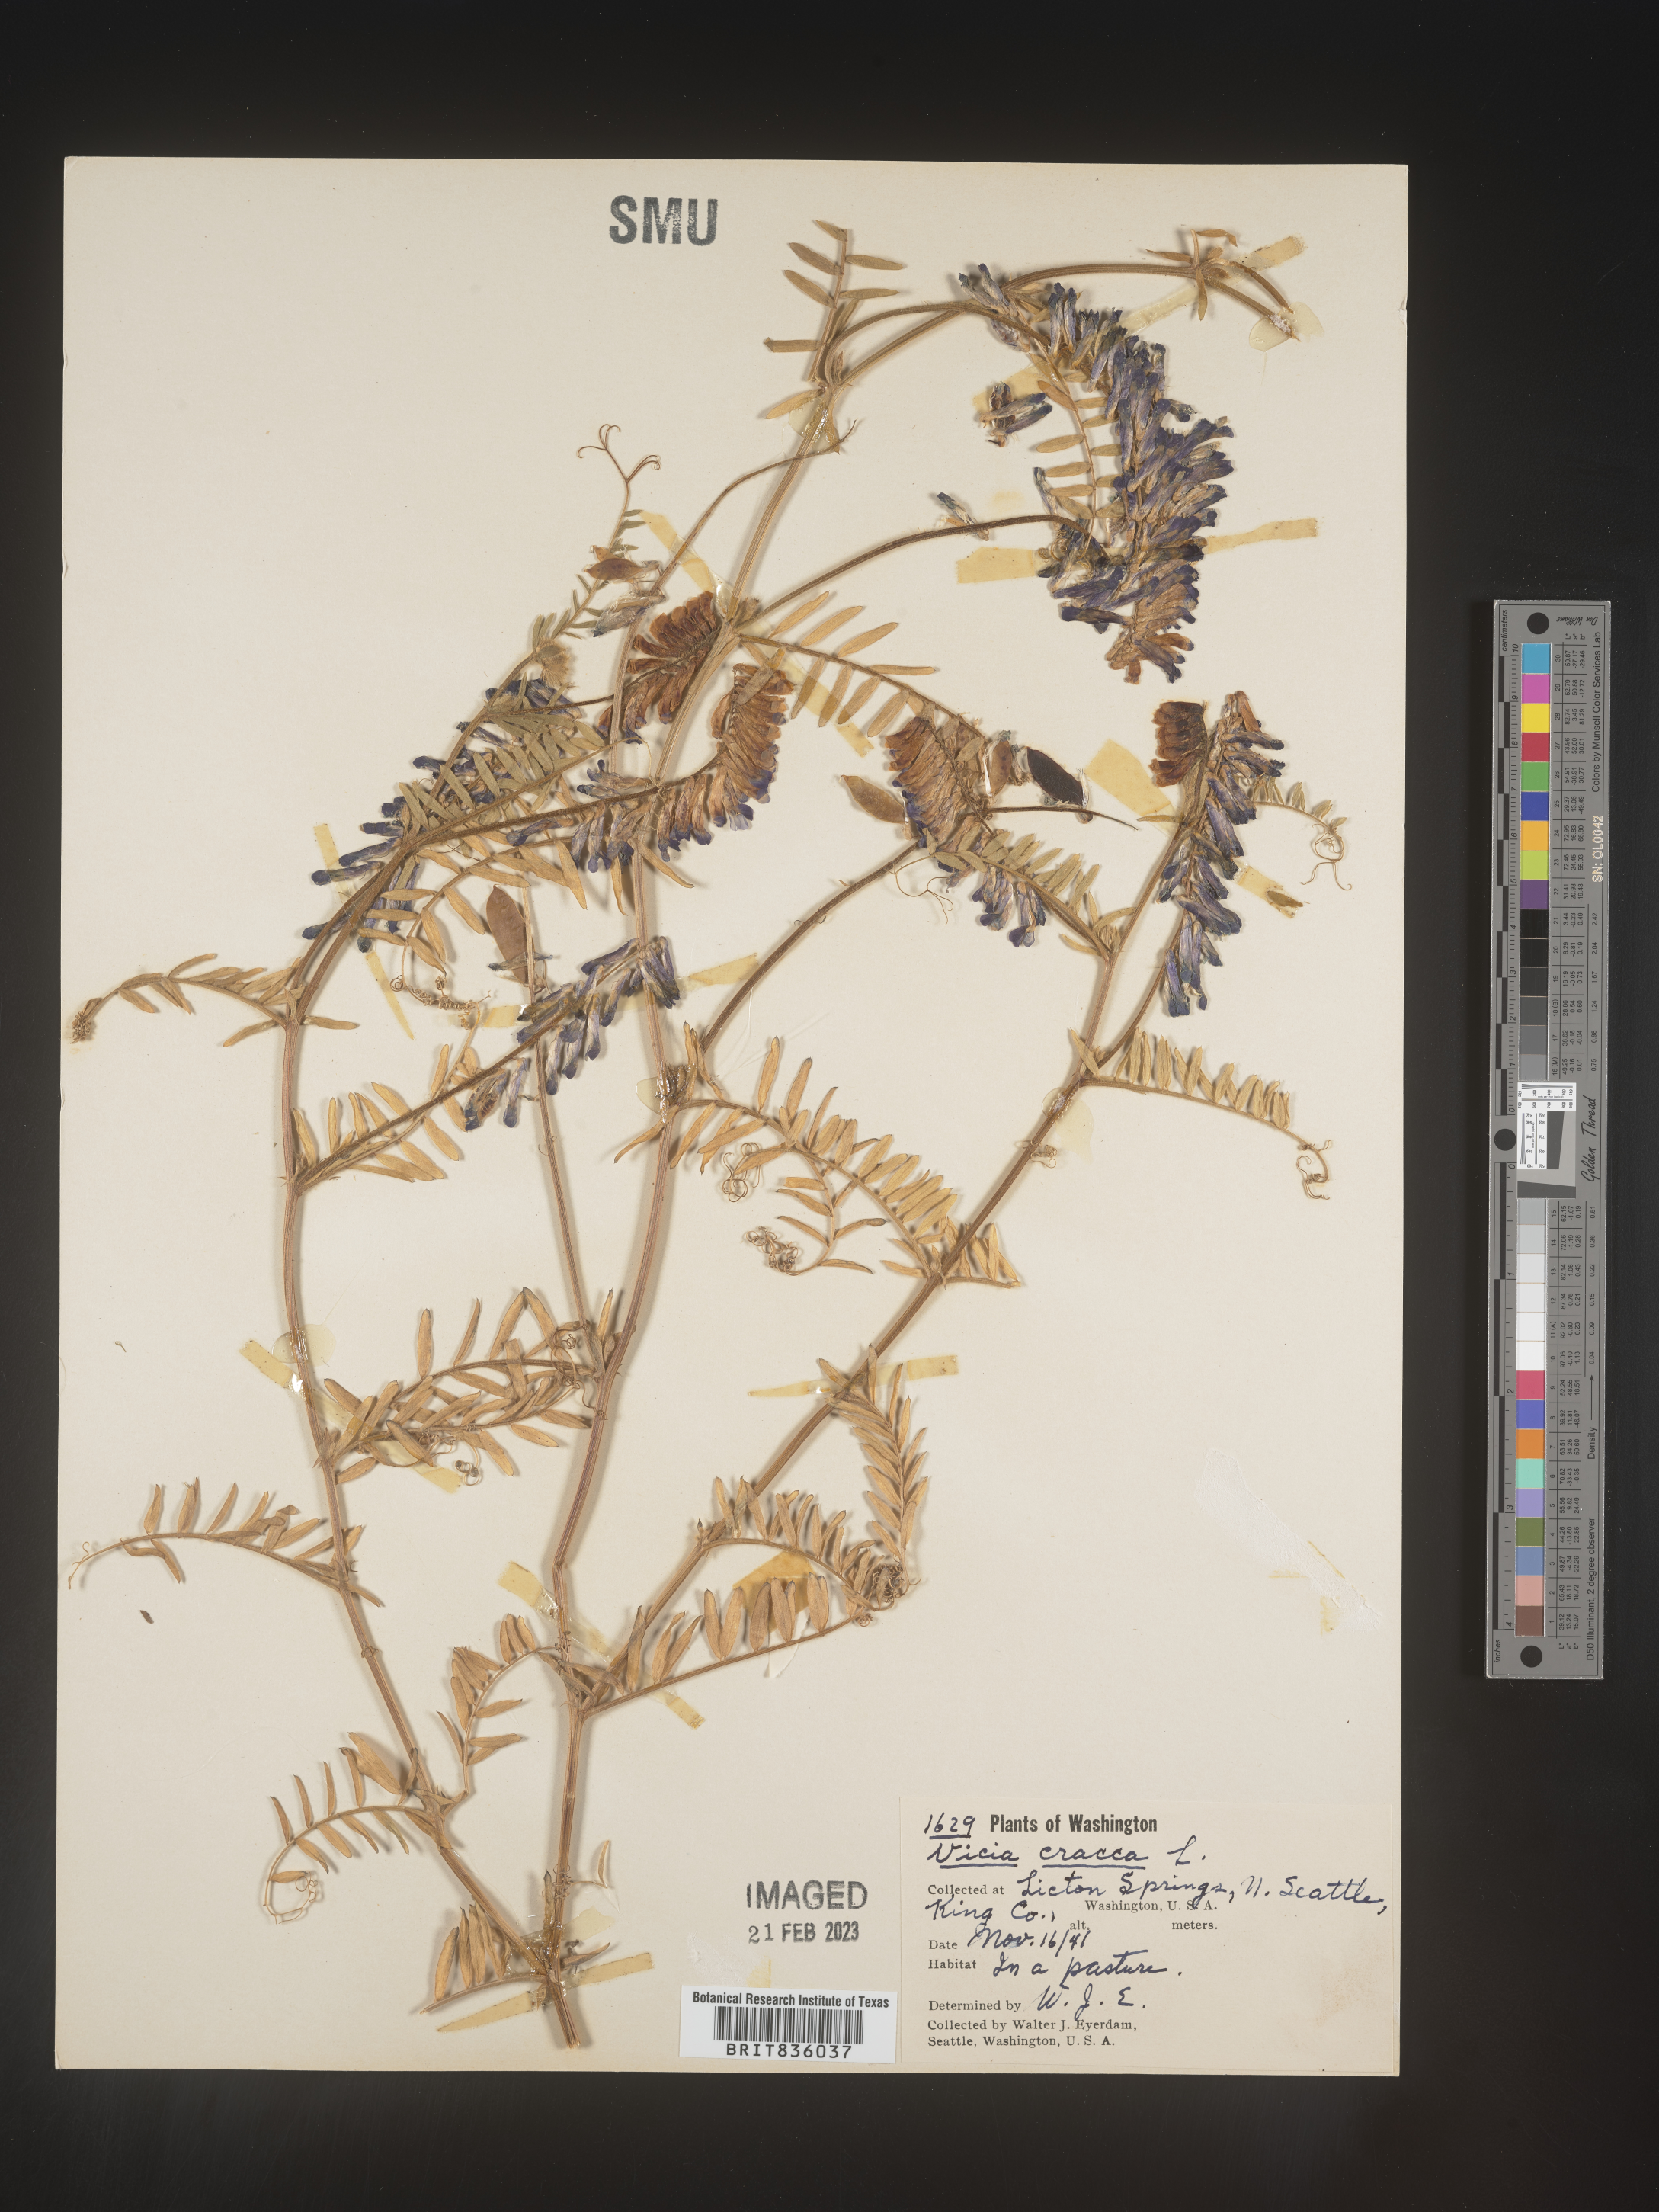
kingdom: Plantae
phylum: Tracheophyta
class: Magnoliopsida
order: Fabales
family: Fabaceae
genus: Vicia
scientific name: Vicia tetrasperma
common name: Smooth tare
